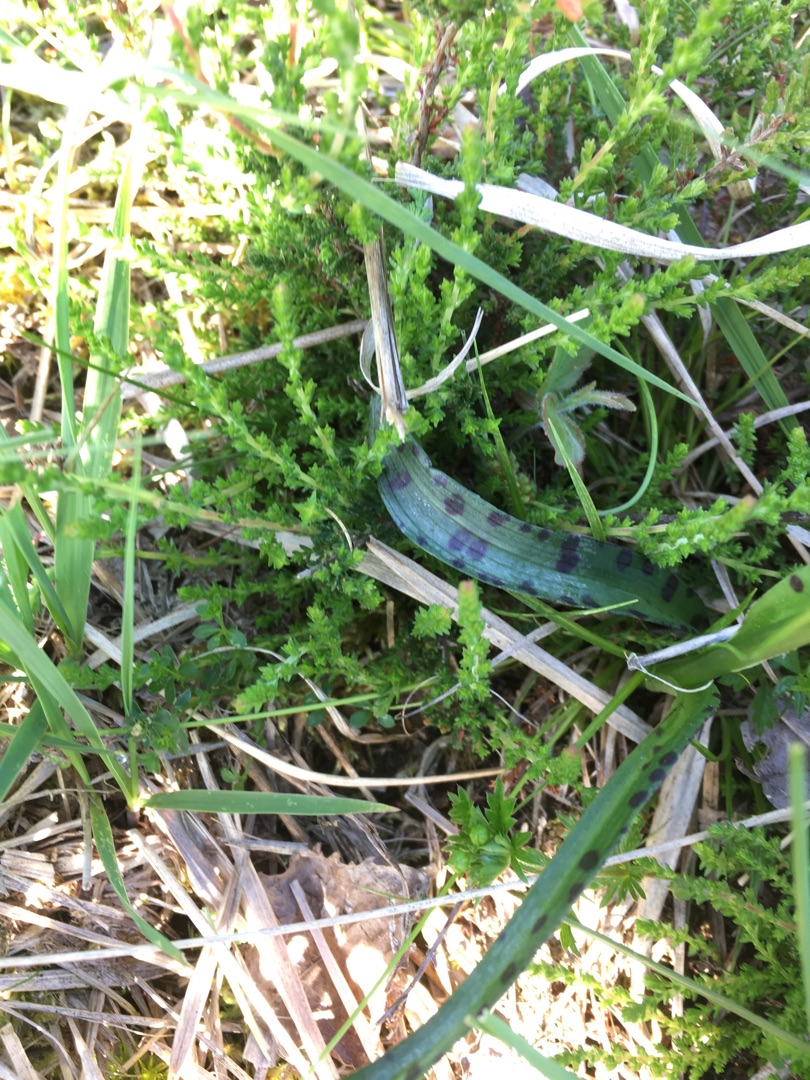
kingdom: Plantae
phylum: Tracheophyta
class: Liliopsida
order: Asparagales
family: Orchidaceae
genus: Dactylorhiza
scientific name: Dactylorhiza maculata
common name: Plettet gøgeurt
